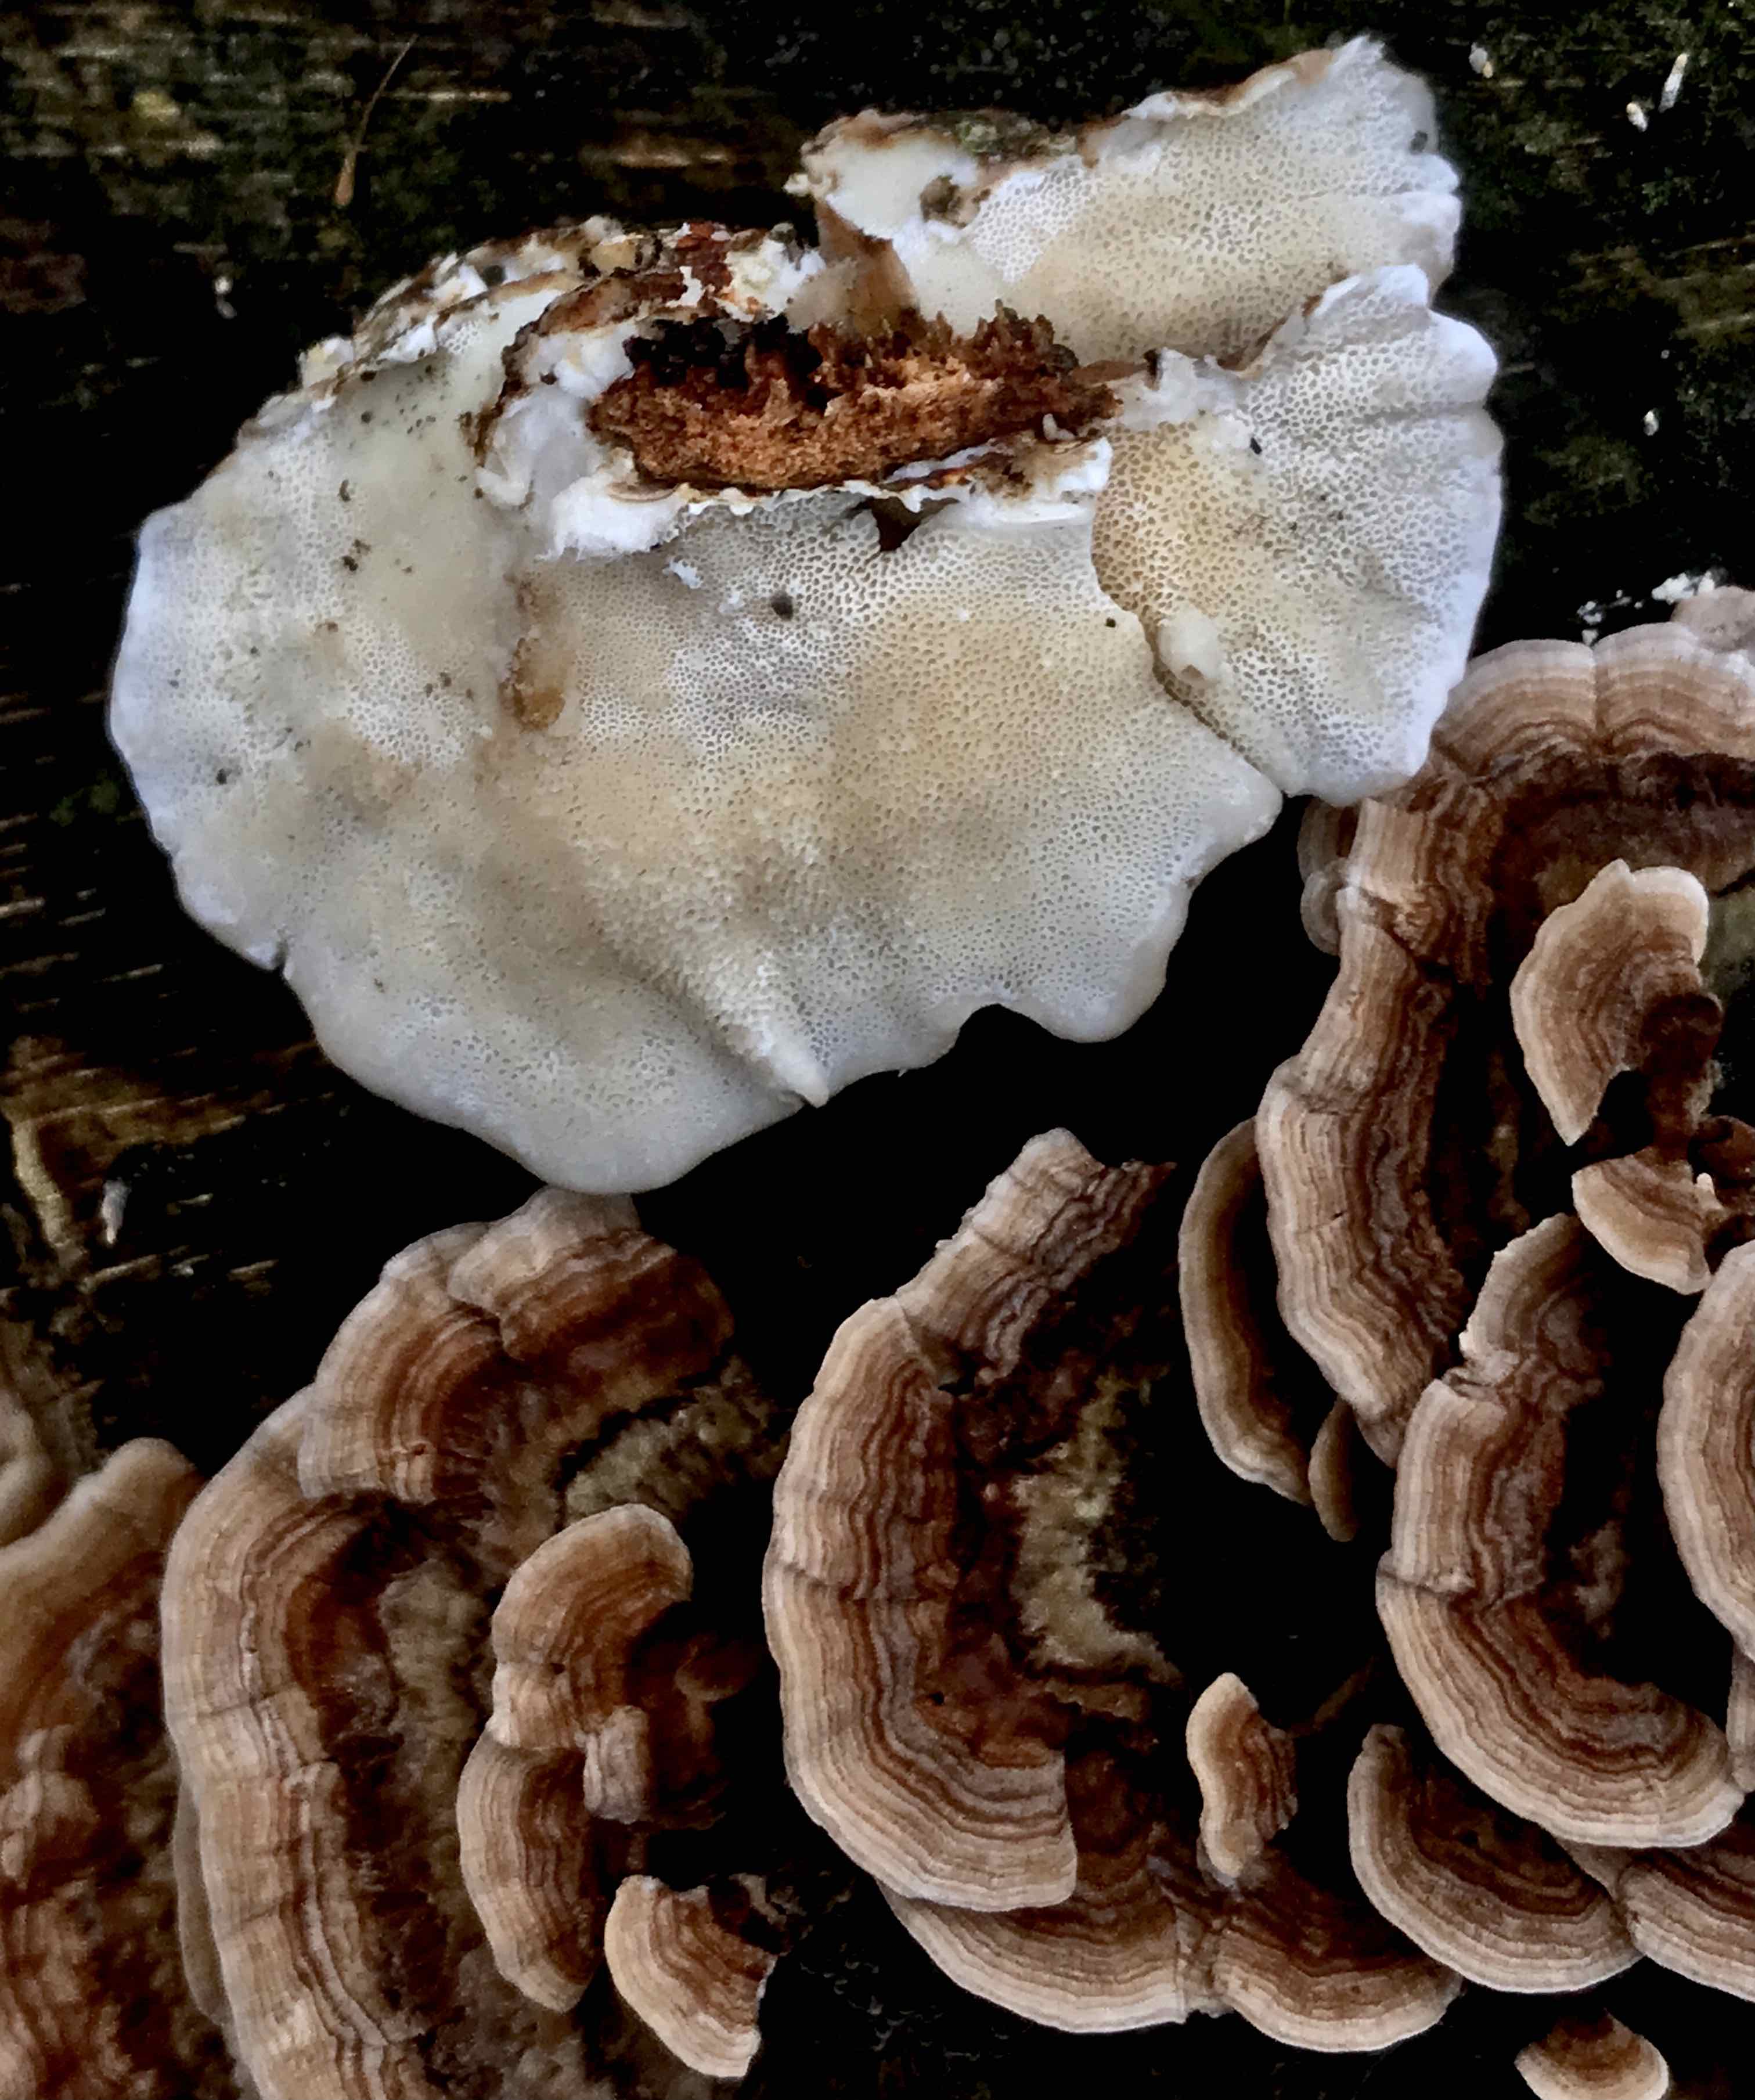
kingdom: Fungi
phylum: Basidiomycota
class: Agaricomycetes
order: Polyporales
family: Polyporaceae
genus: Trametes
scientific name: Trametes ochracea
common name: bæltet læderporesvamp
